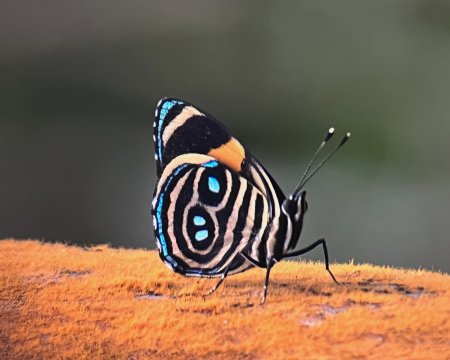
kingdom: Animalia
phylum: Arthropoda
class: Insecta
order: Lepidoptera
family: Nymphalidae
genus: Catagramma
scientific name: Catagramma Callicore tolima
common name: Blue-and-orange Eighty-eight
